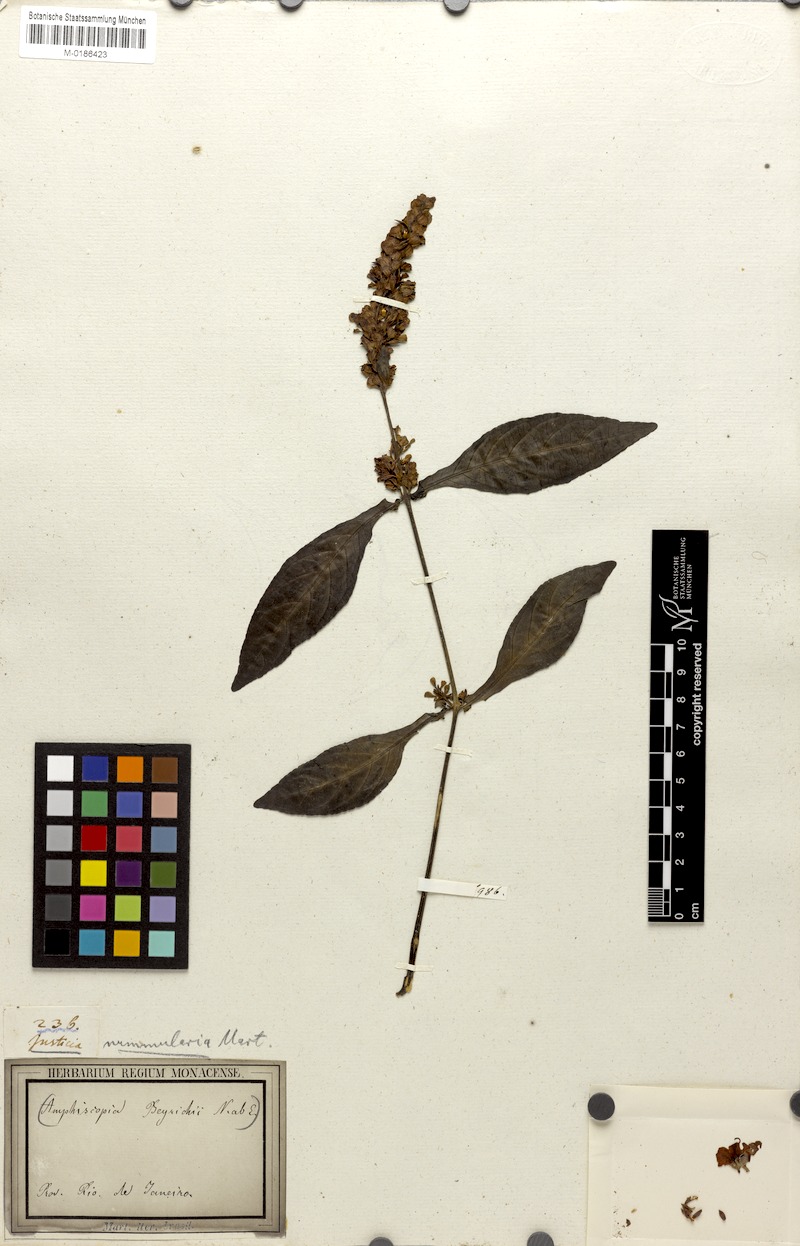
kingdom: Plantae
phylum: Tracheophyta
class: Magnoliopsida
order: Lamiales
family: Acanthaceae
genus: Dianthera
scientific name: Dianthera brasiliensis
